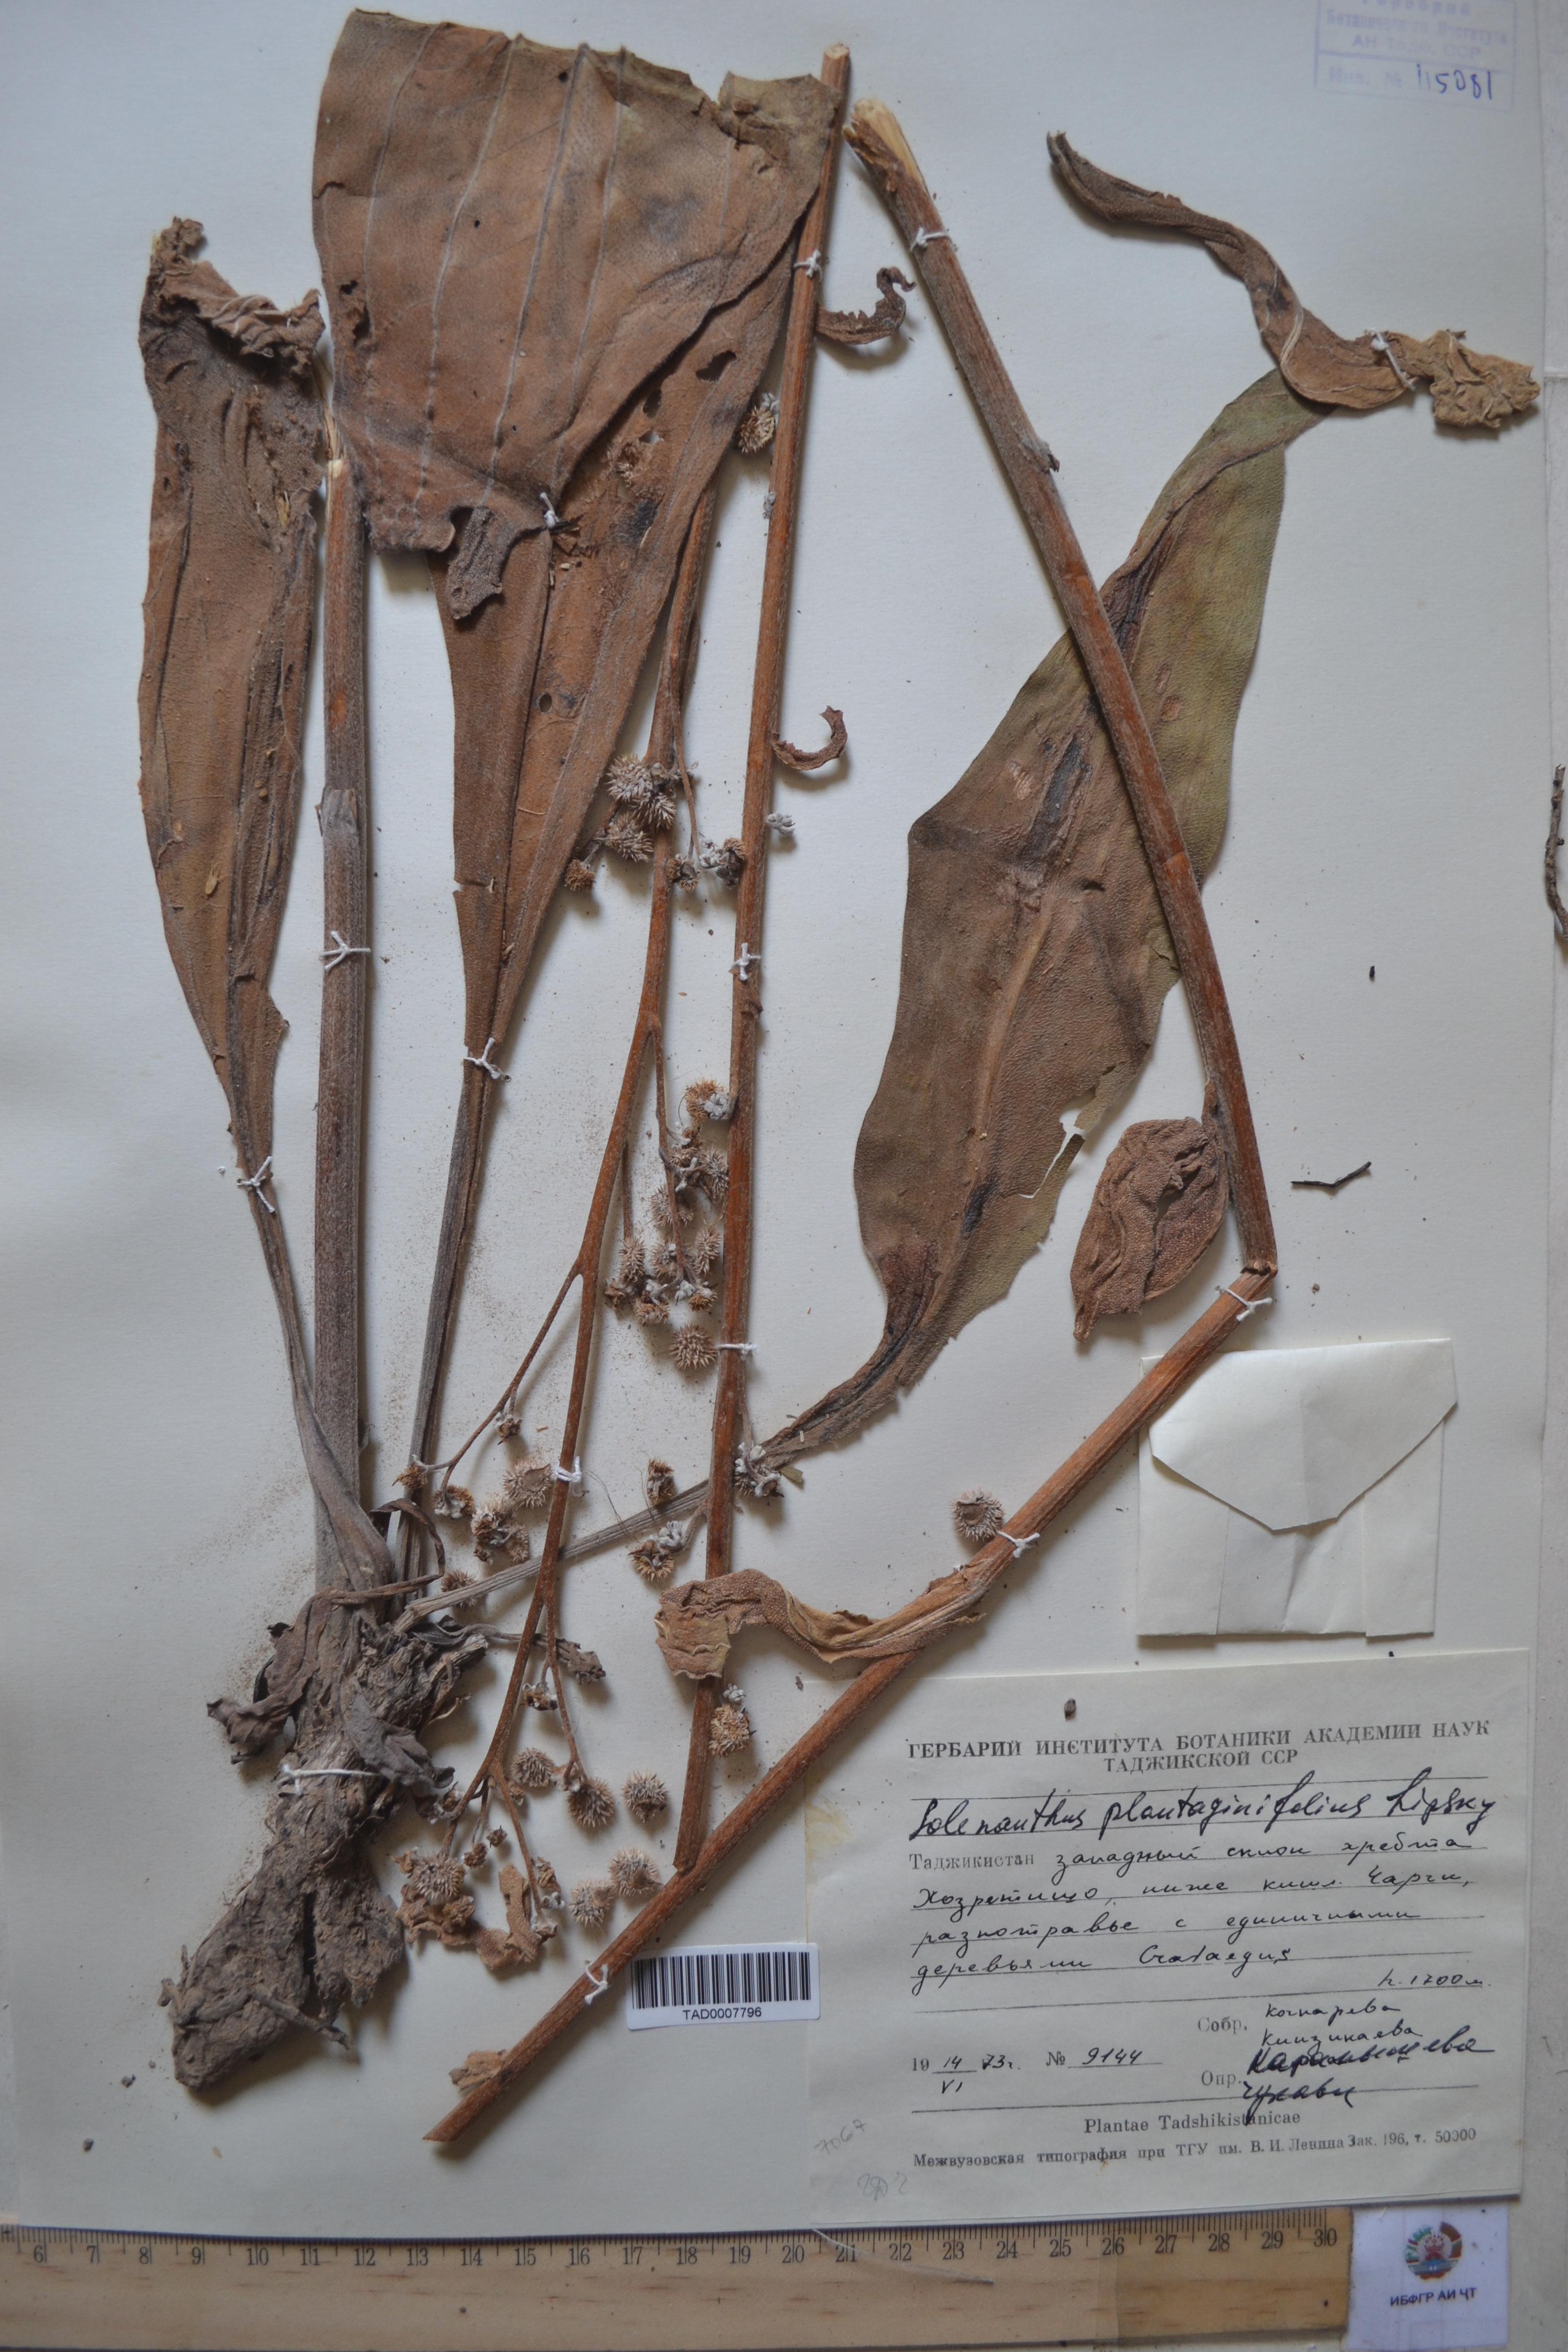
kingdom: Plantae
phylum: Tracheophyta
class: Magnoliopsida
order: Boraginales
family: Boraginaceae
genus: Solenanthus
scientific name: Solenanthus plantaginifolius
